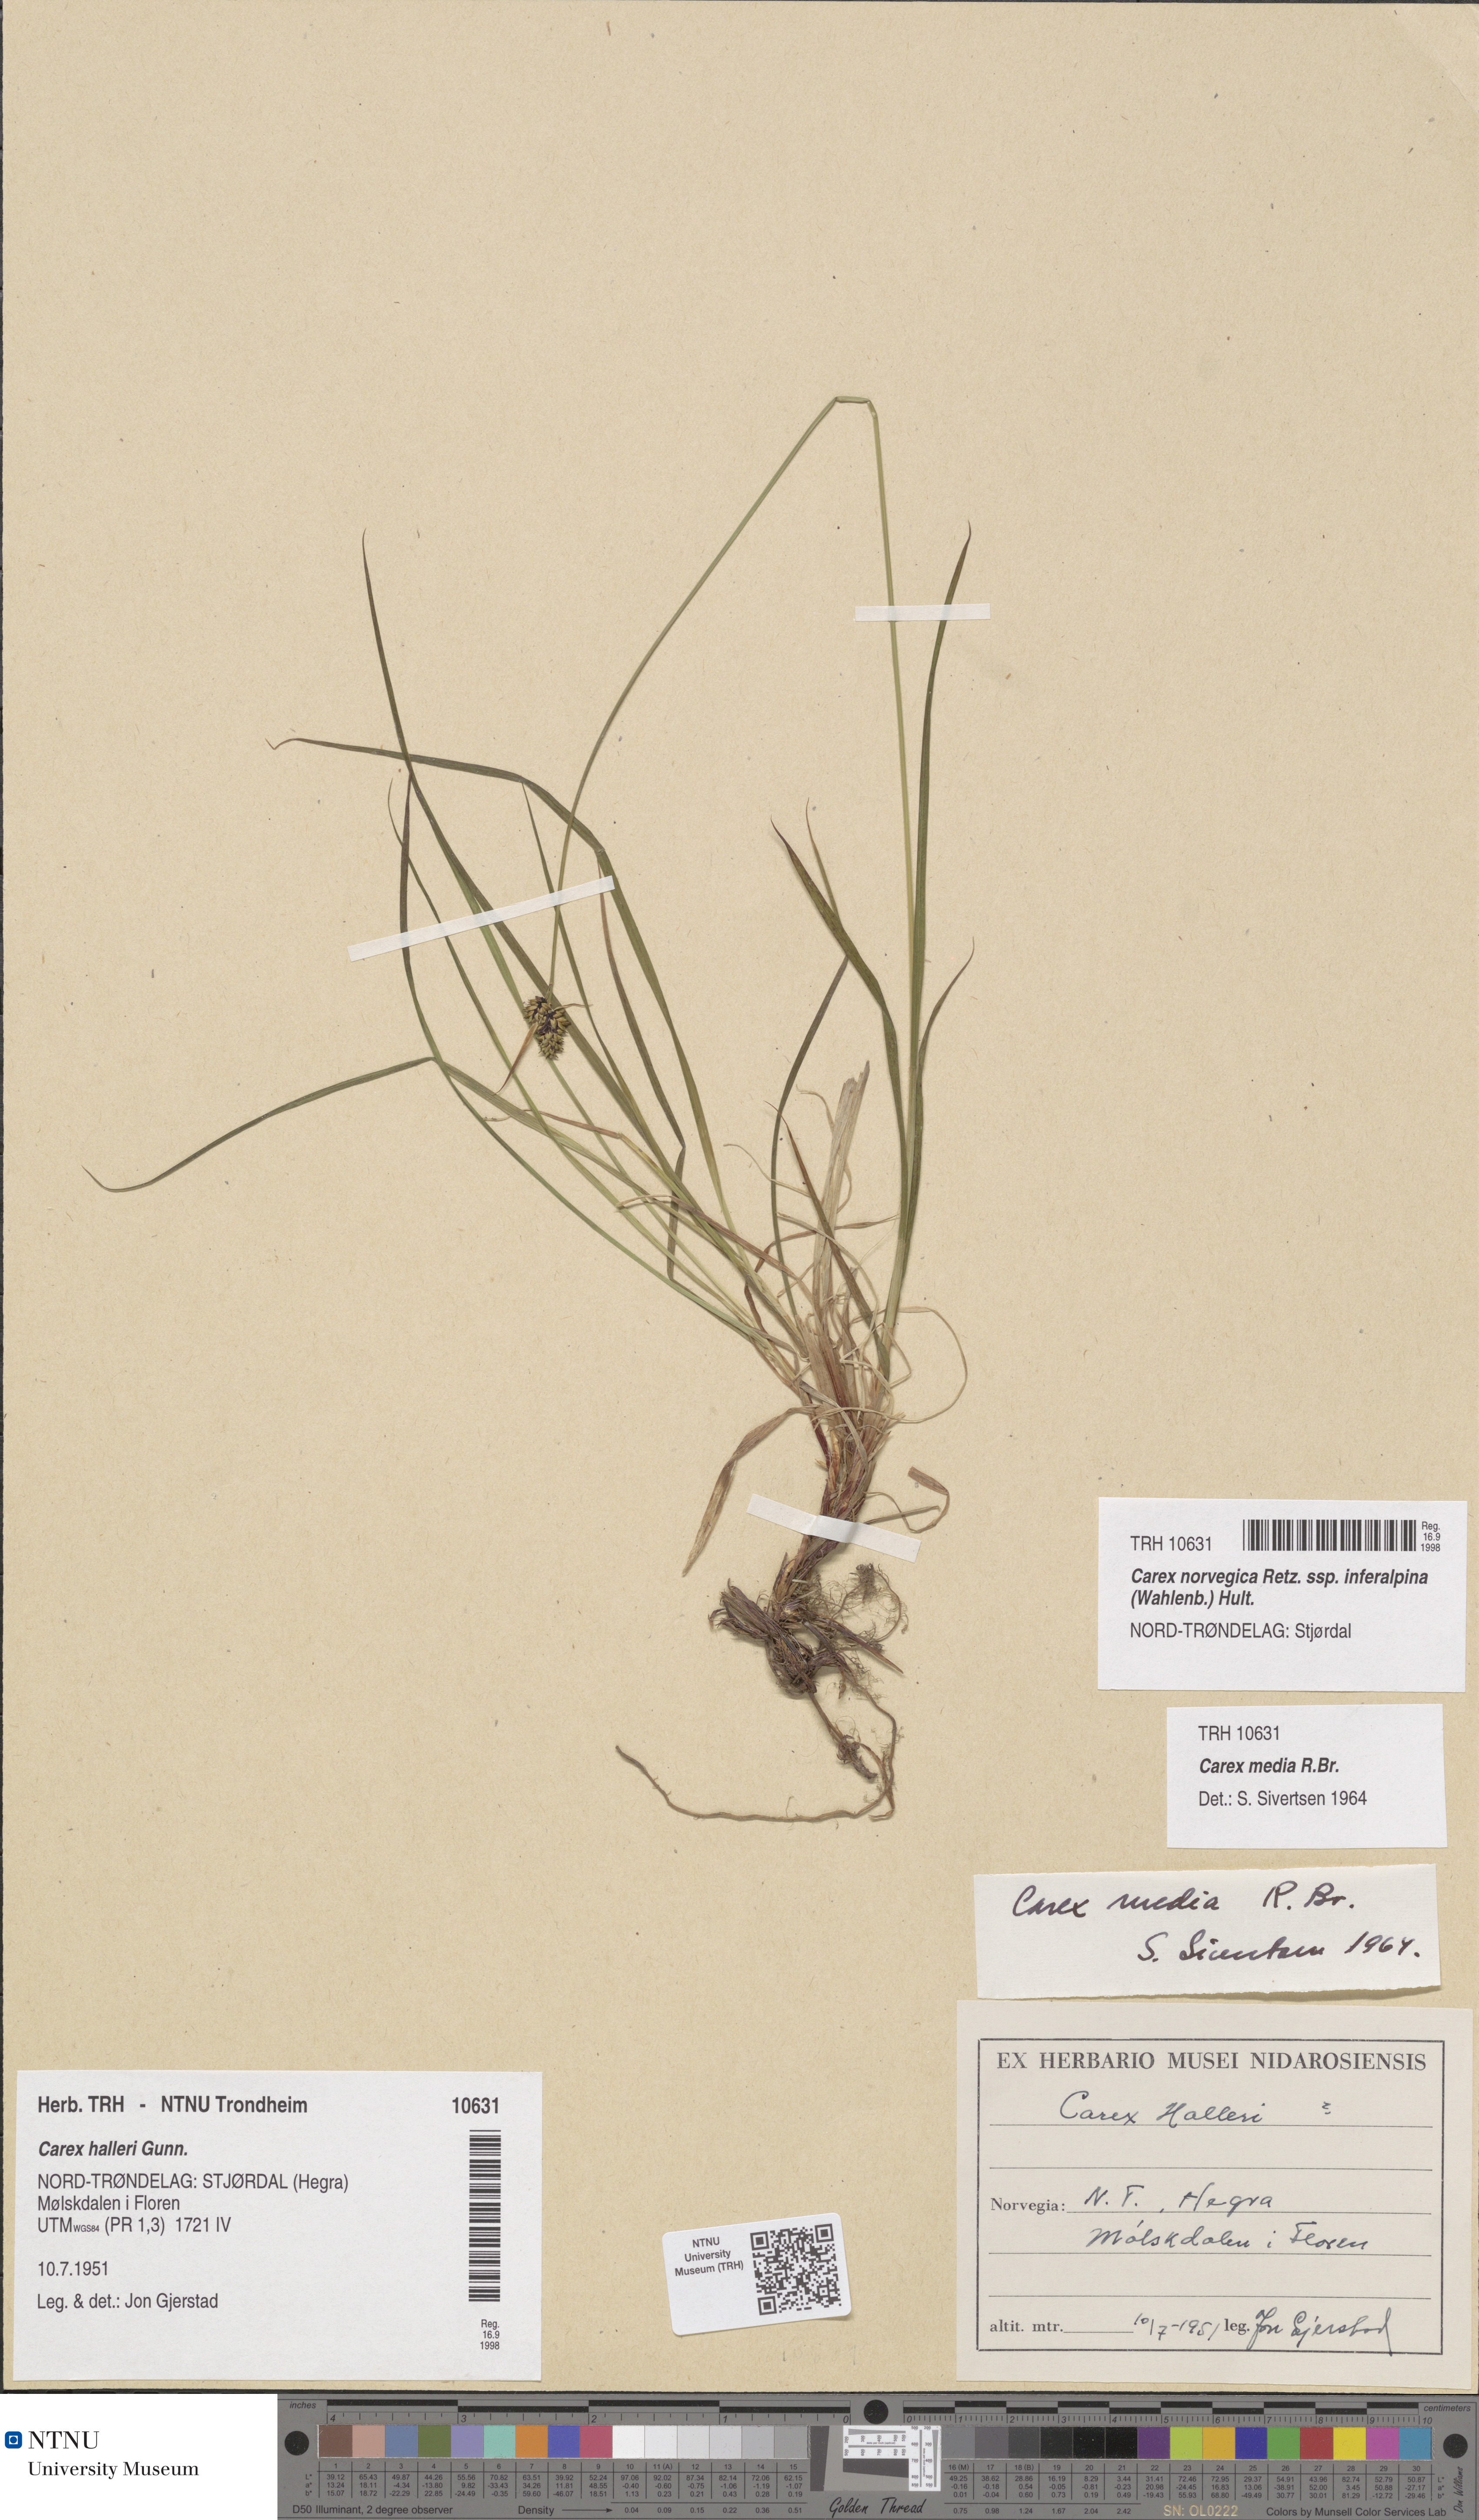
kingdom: Plantae
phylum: Tracheophyta
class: Liliopsida
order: Poales
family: Cyperaceae
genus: Carex
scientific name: Carex media
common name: Alpine sedge
